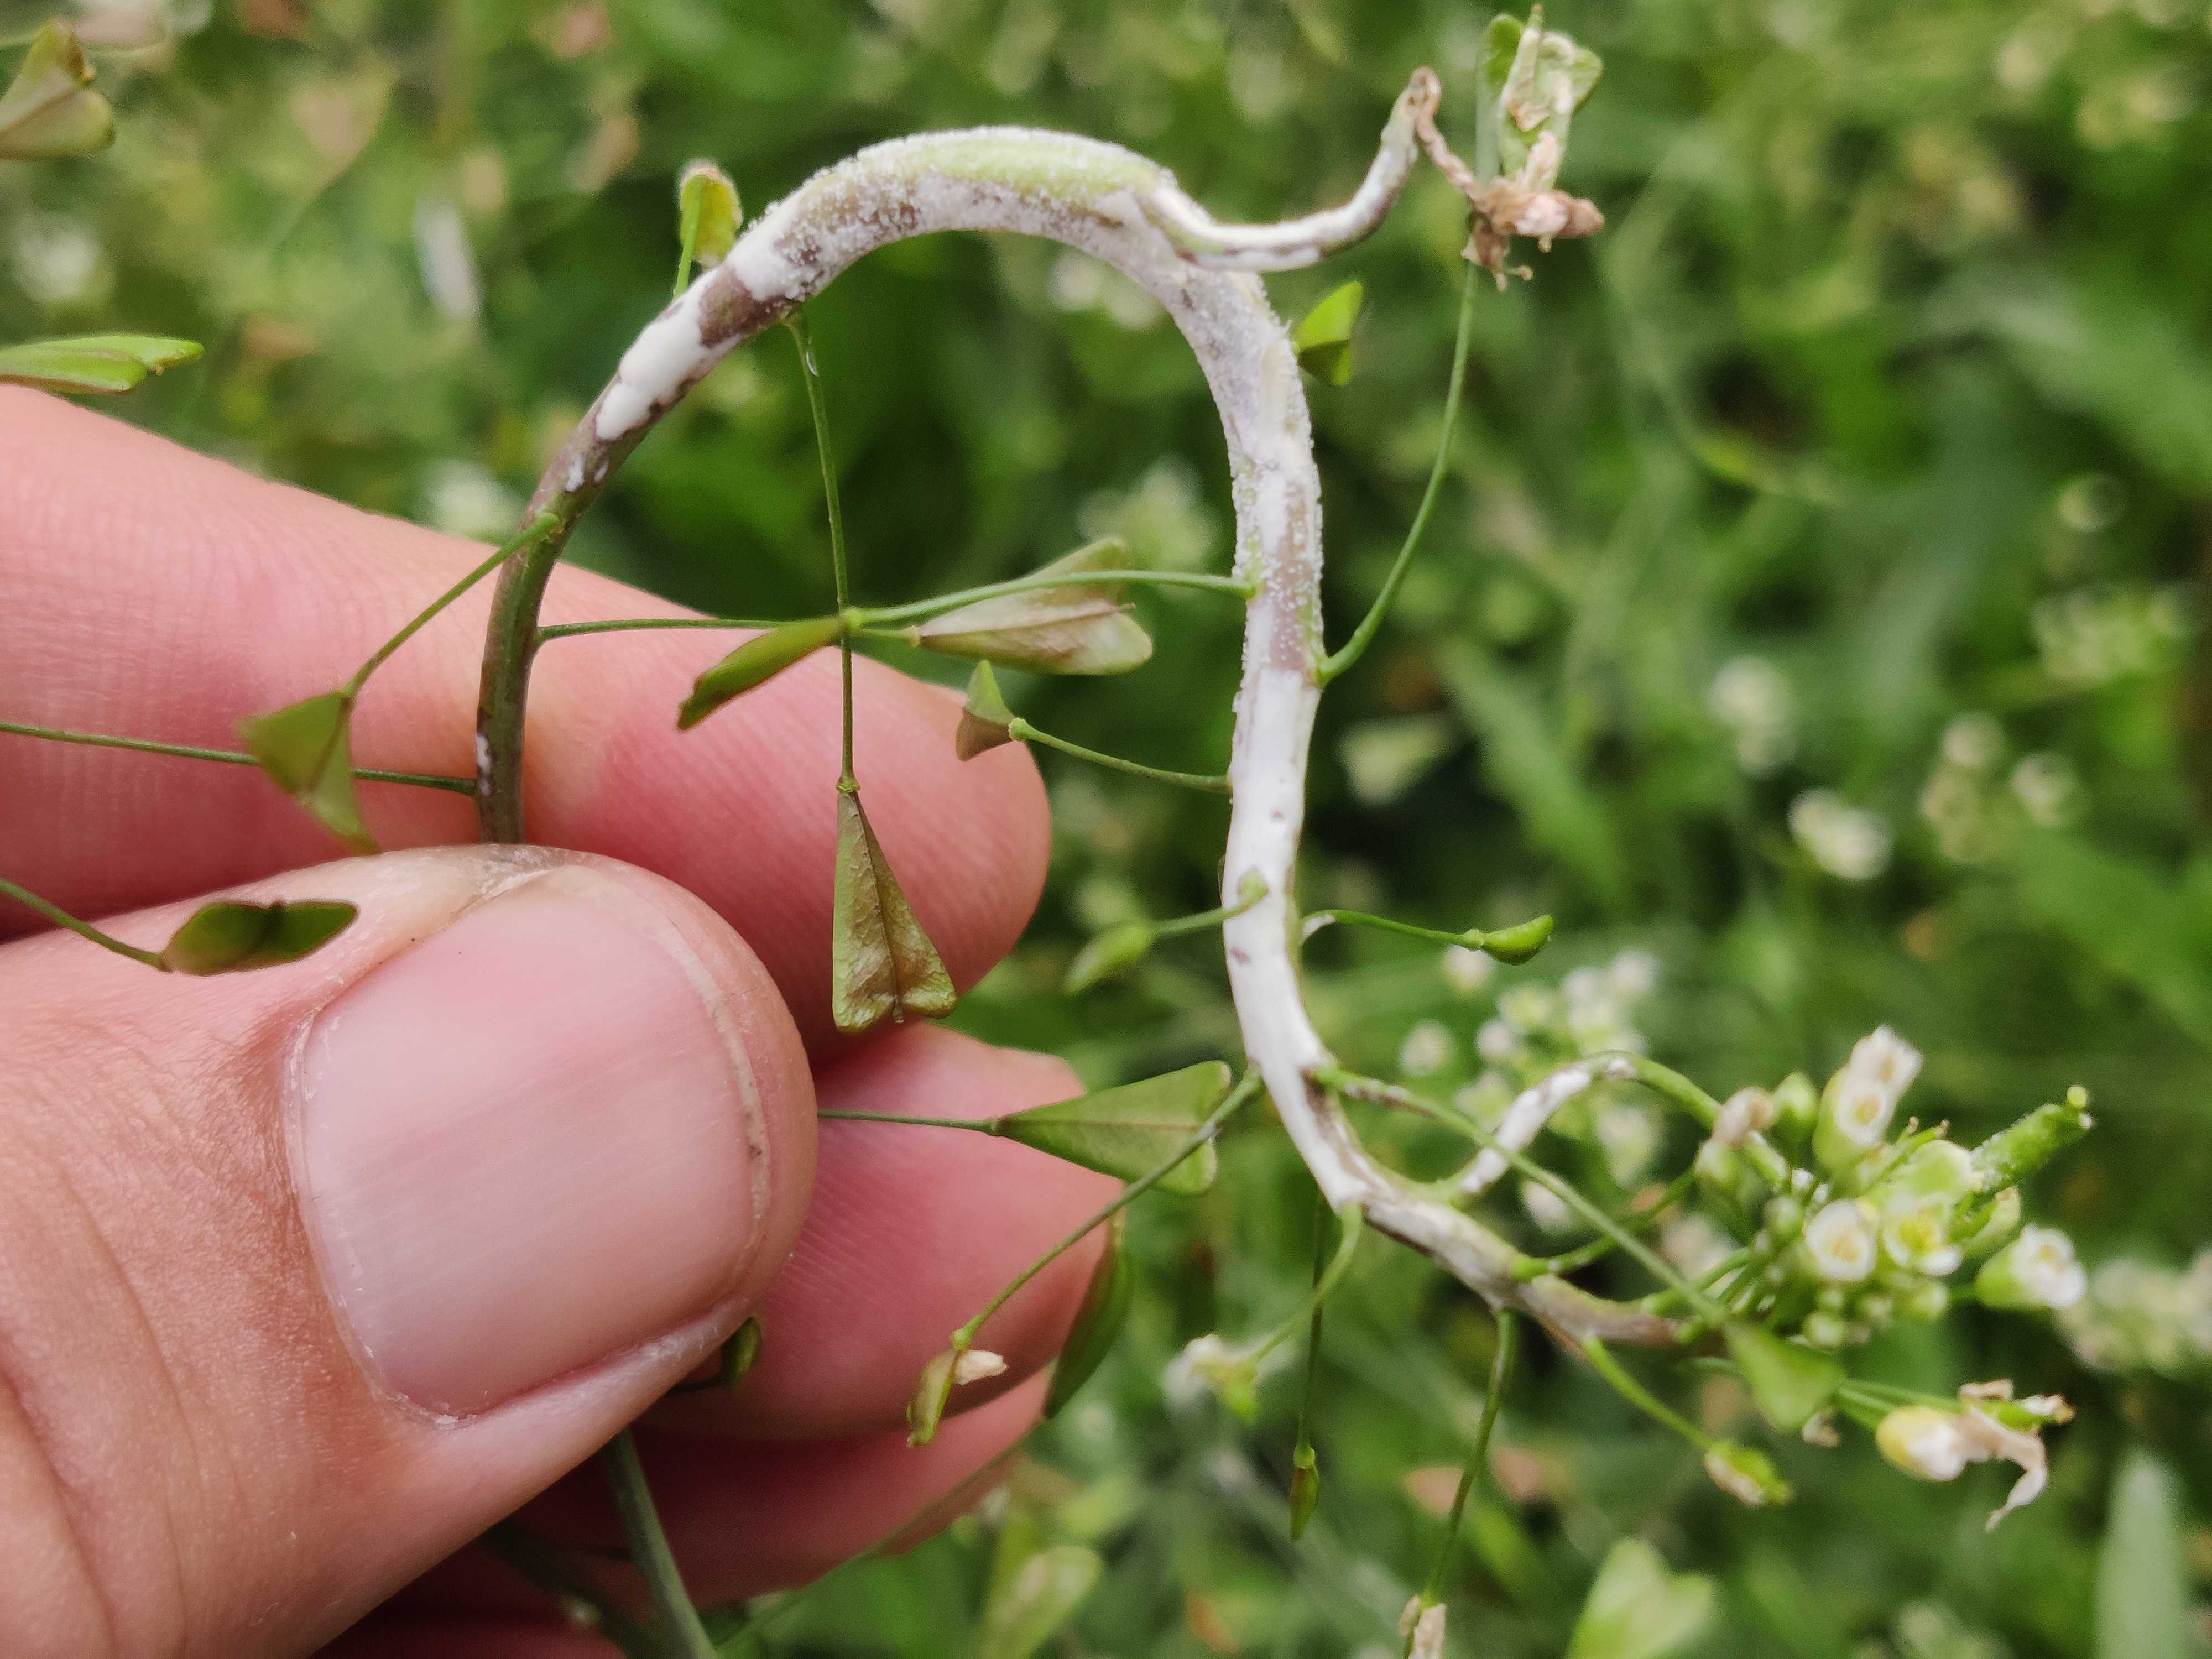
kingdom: Chromista
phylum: Oomycota
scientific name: Oomycota
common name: ægsporealger
